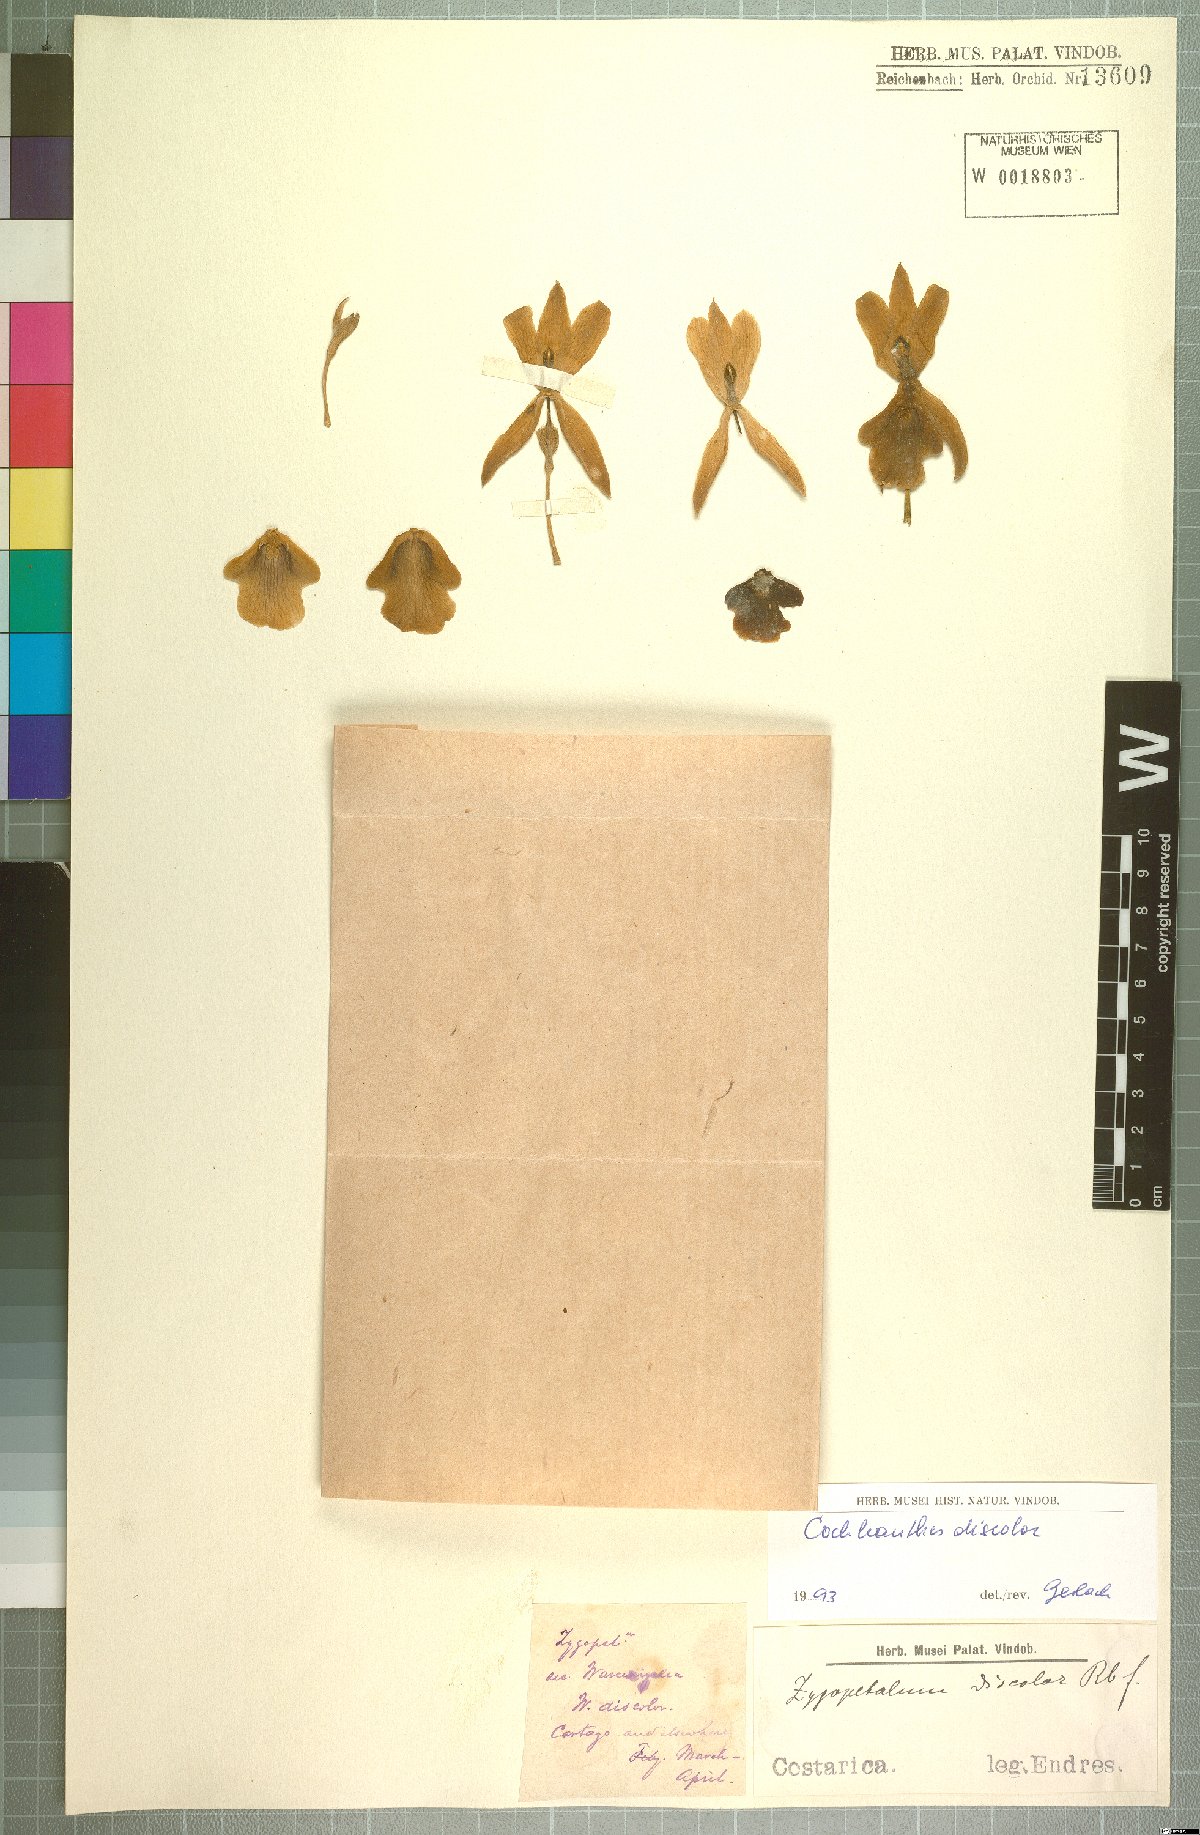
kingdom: Plantae
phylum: Tracheophyta
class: Liliopsida
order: Asparagales
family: Orchidaceae
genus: Warczewiczella
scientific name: Warczewiczella discolor
